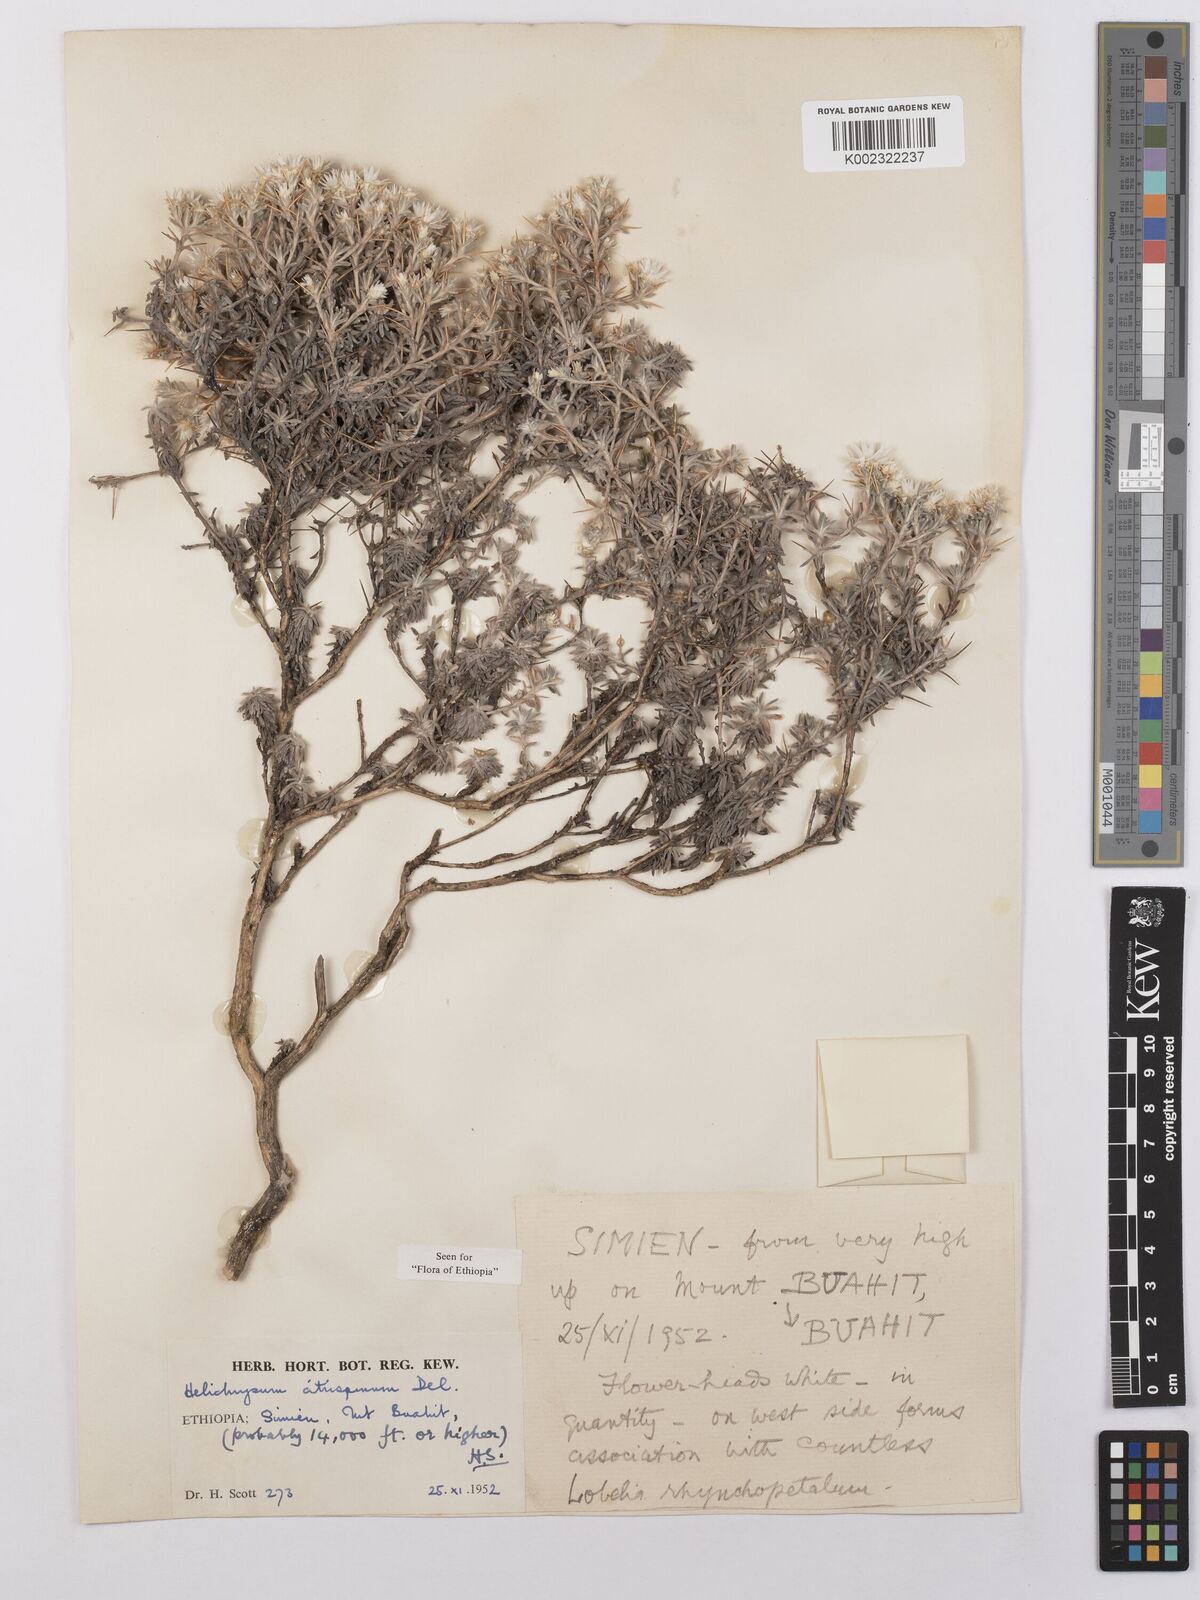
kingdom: Plantae
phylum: Tracheophyta
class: Magnoliopsida
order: Asterales
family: Asteraceae
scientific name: Asteraceae
